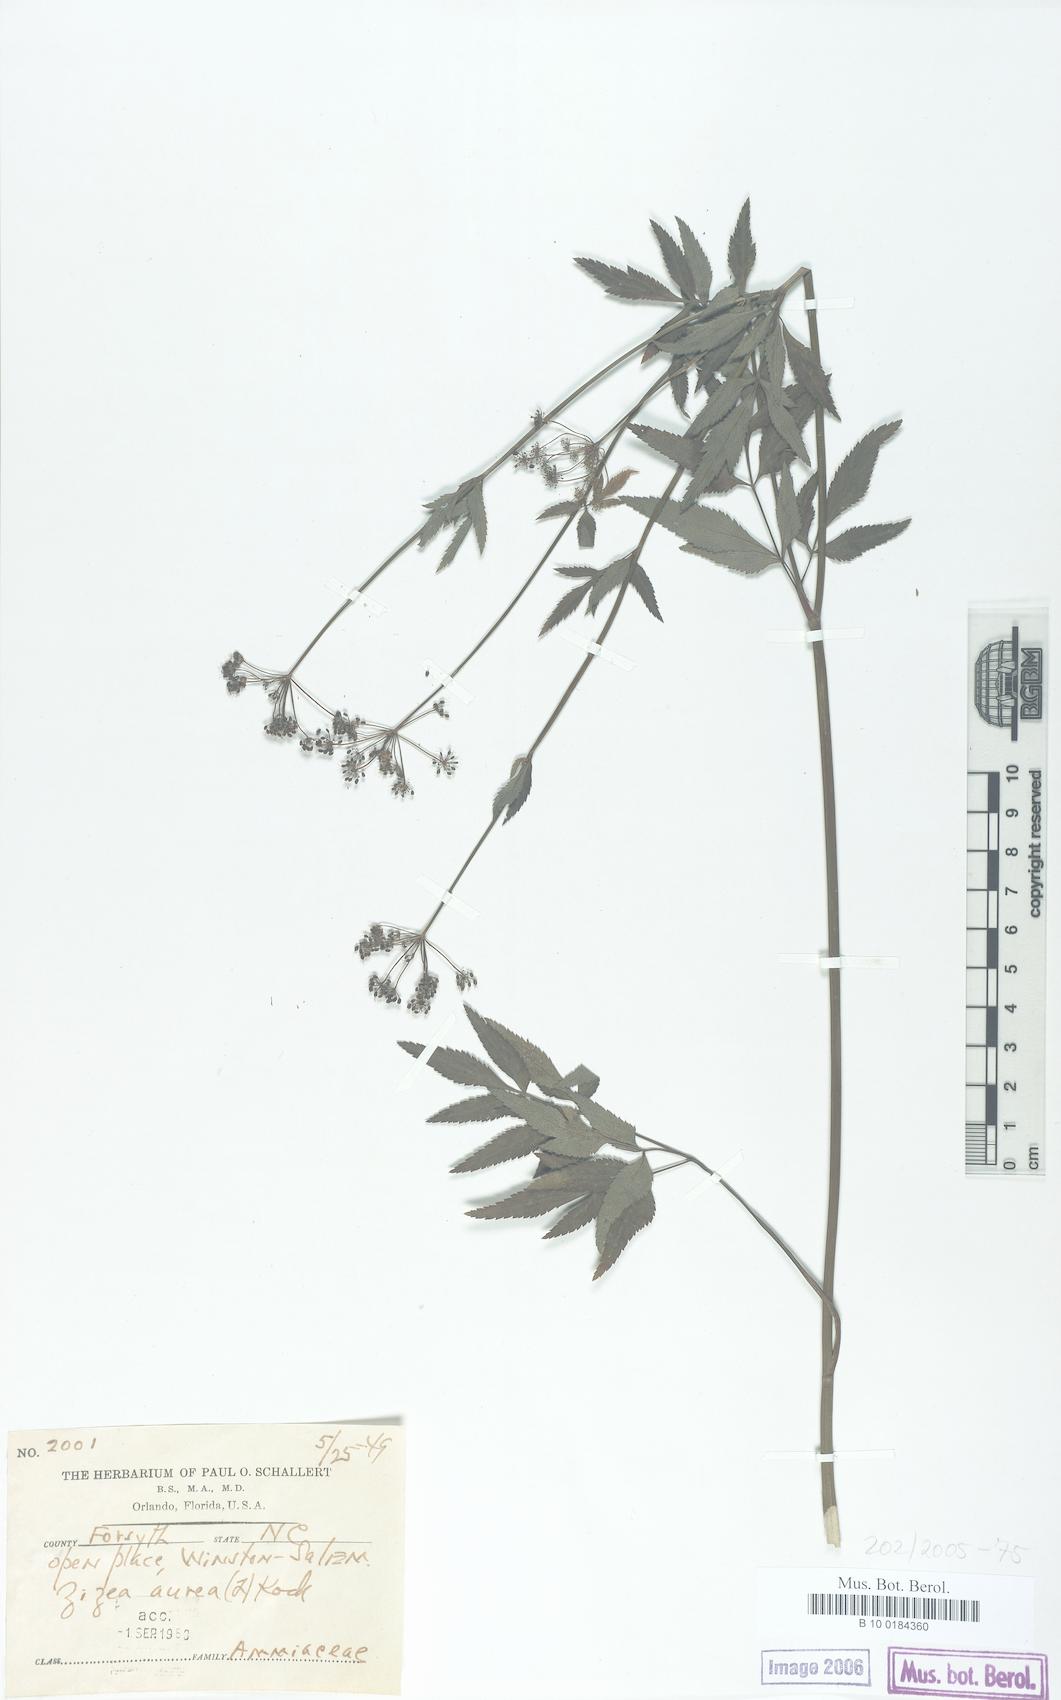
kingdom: Plantae
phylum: Tracheophyta
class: Magnoliopsida
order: Apiales
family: Apiaceae
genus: Zizia
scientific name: Zizia aurea
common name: Golden alexanders
